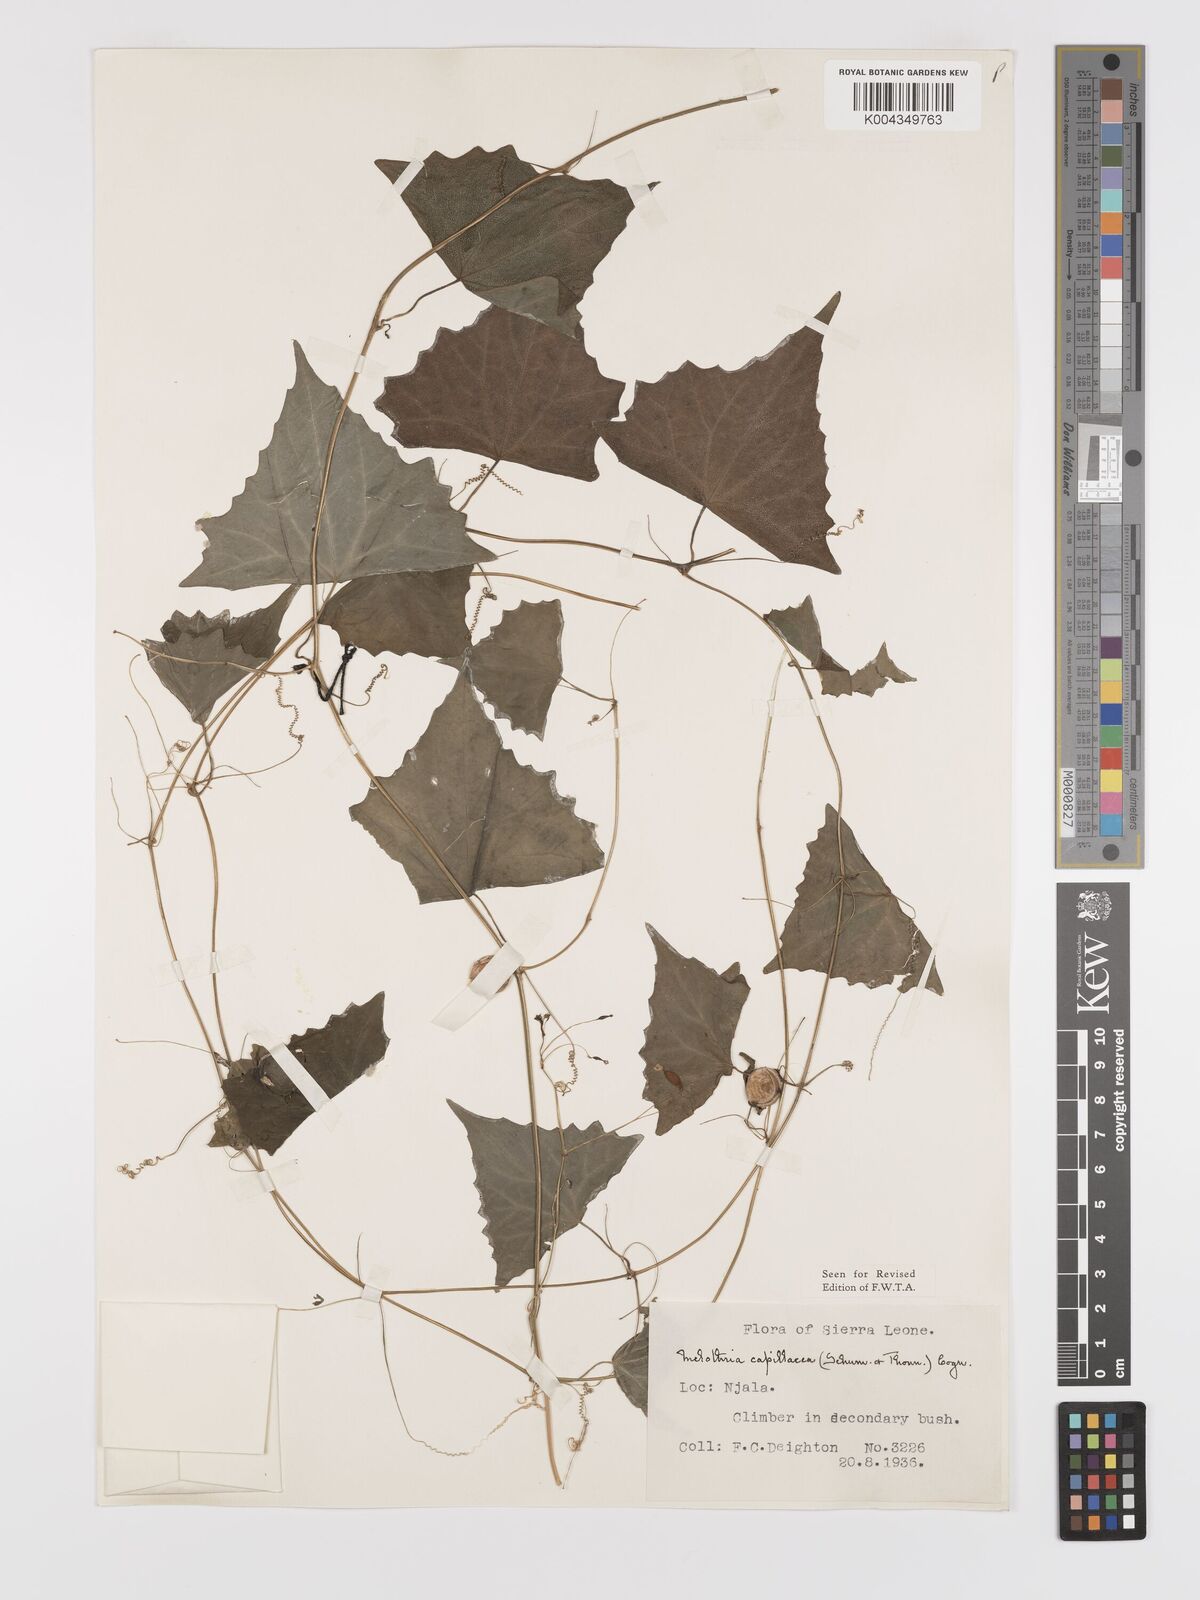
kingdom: Plantae
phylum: Tracheophyta
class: Magnoliopsida
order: Cucurbitales
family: Cucurbitaceae
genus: Zehneria
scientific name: Zehneria capillacea
